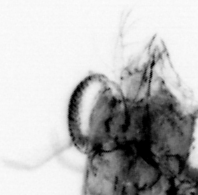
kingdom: Animalia
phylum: Arthropoda
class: Malacostraca
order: Decapoda
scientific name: Decapoda
